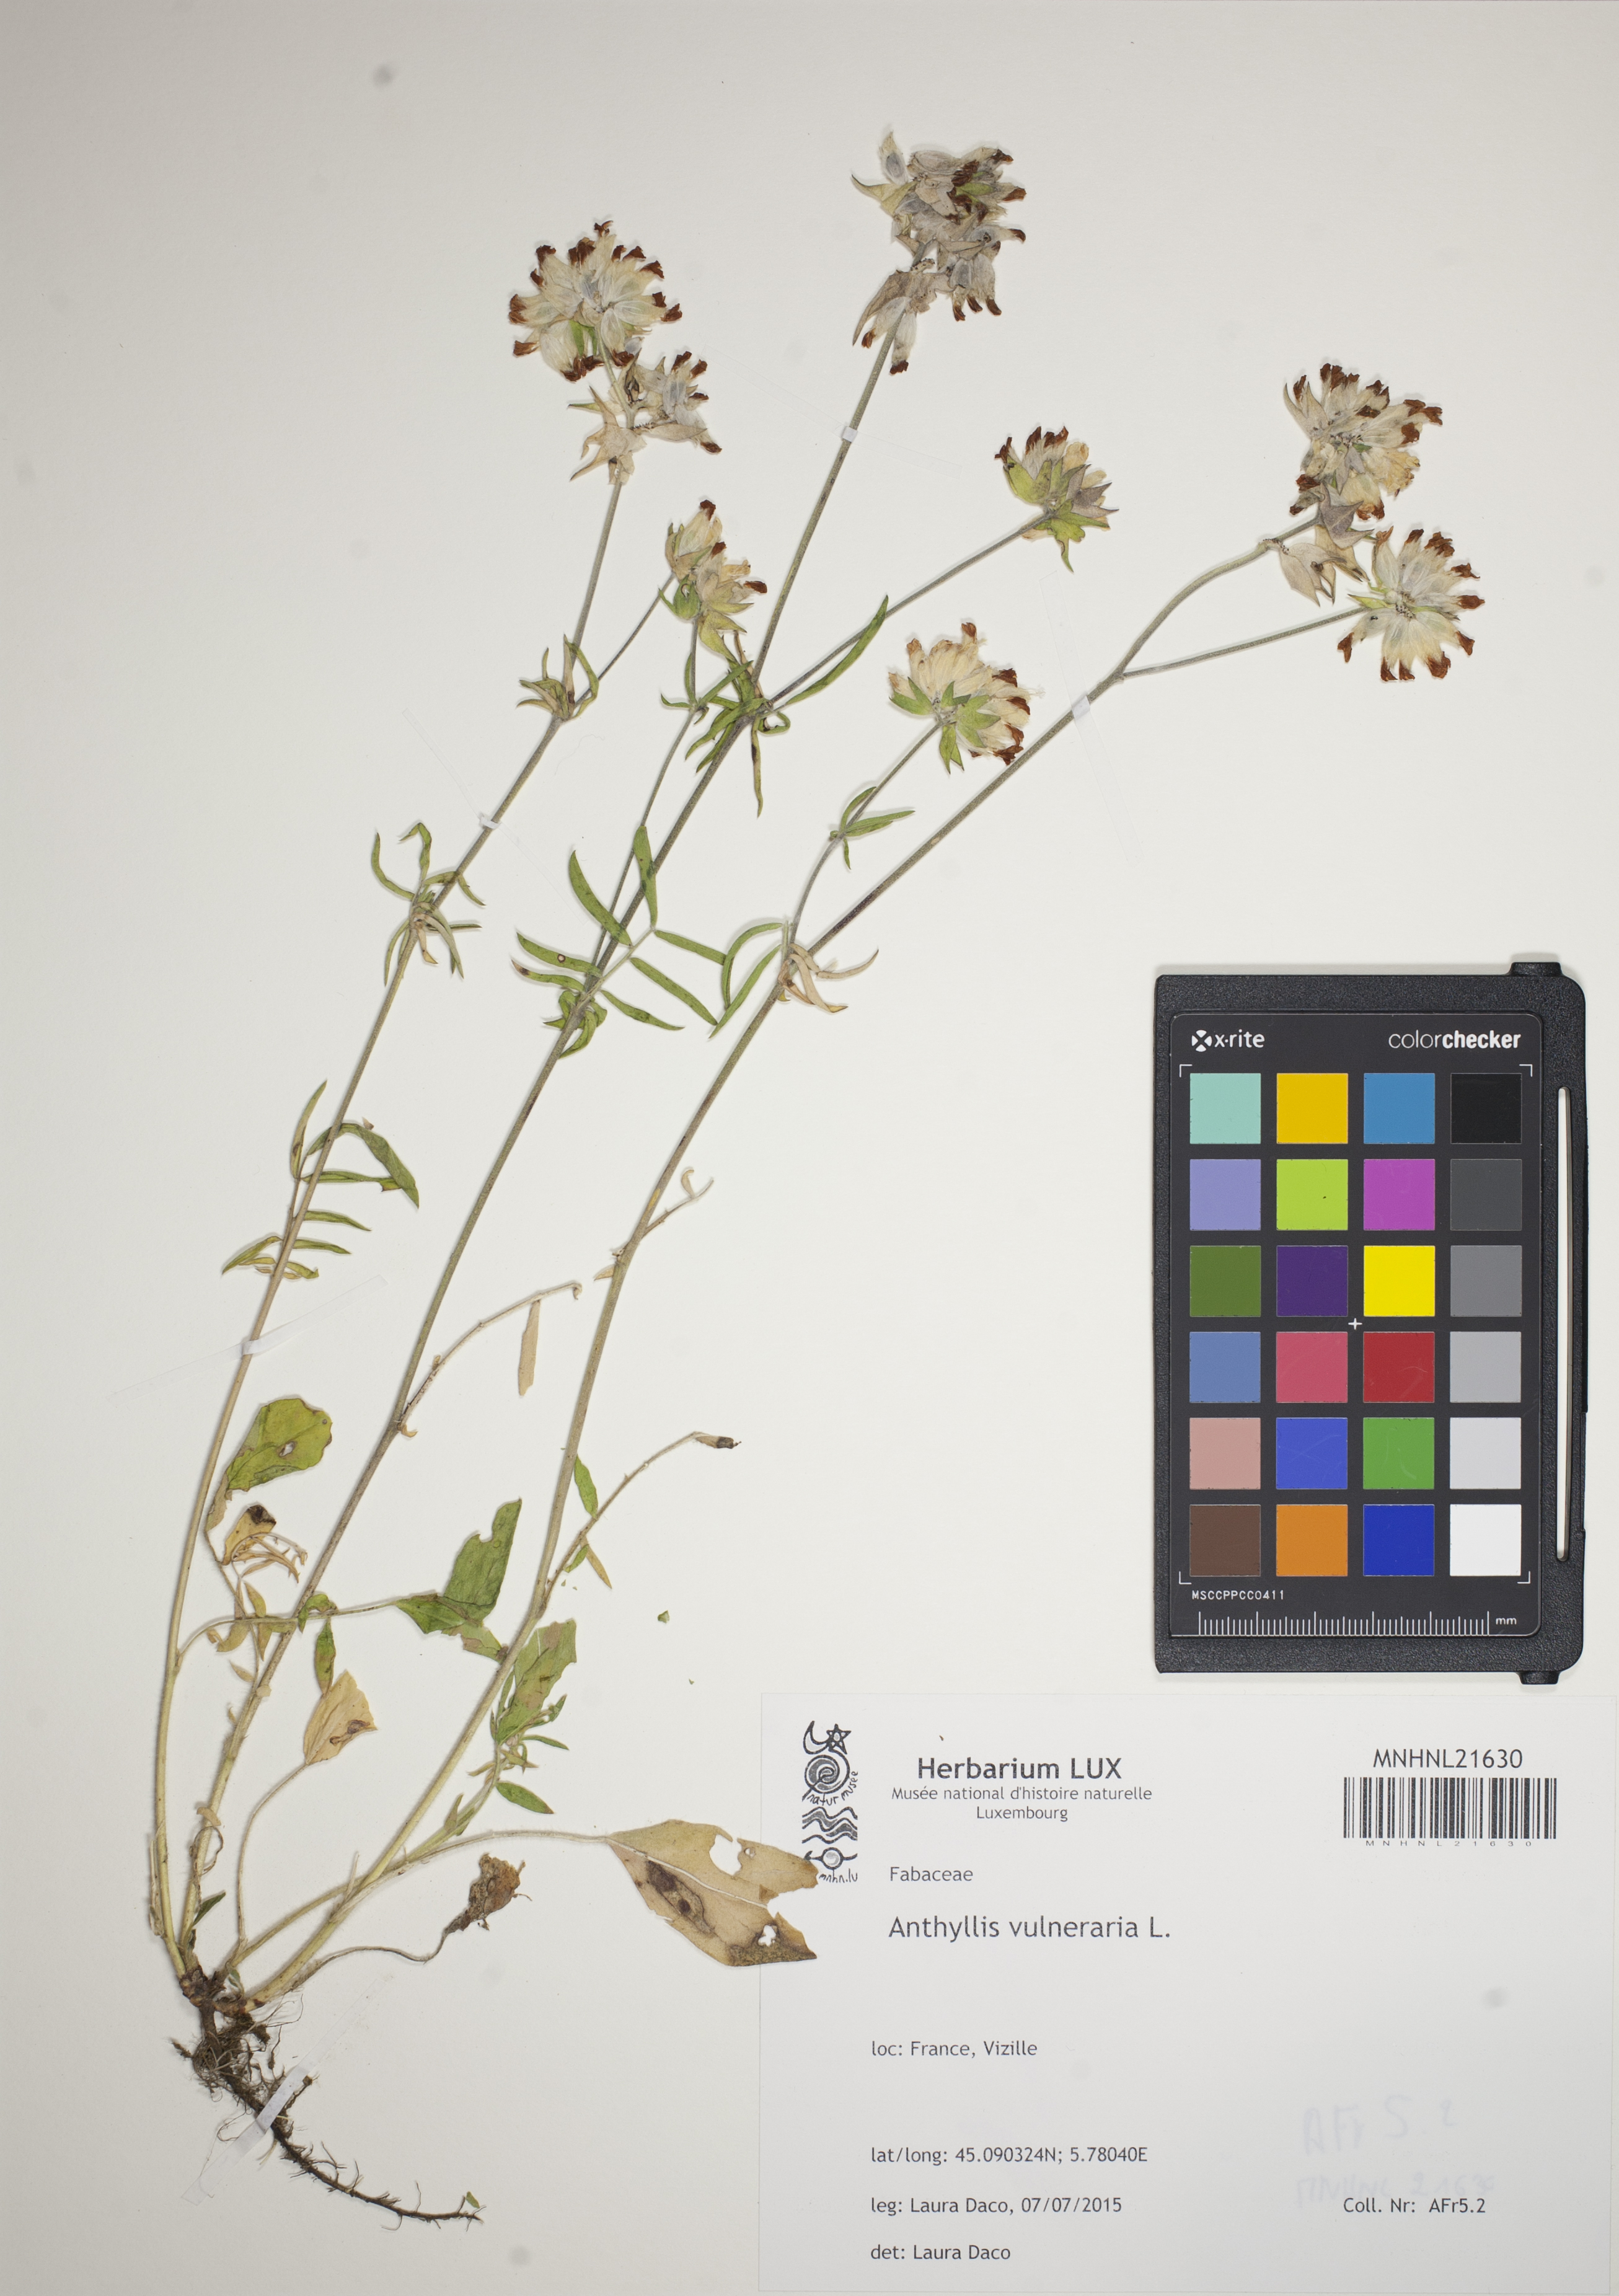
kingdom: Plantae
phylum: Tracheophyta
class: Magnoliopsida
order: Fabales
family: Fabaceae
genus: Anthyllis
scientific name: Anthyllis vulneraria
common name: Kidney vetch
